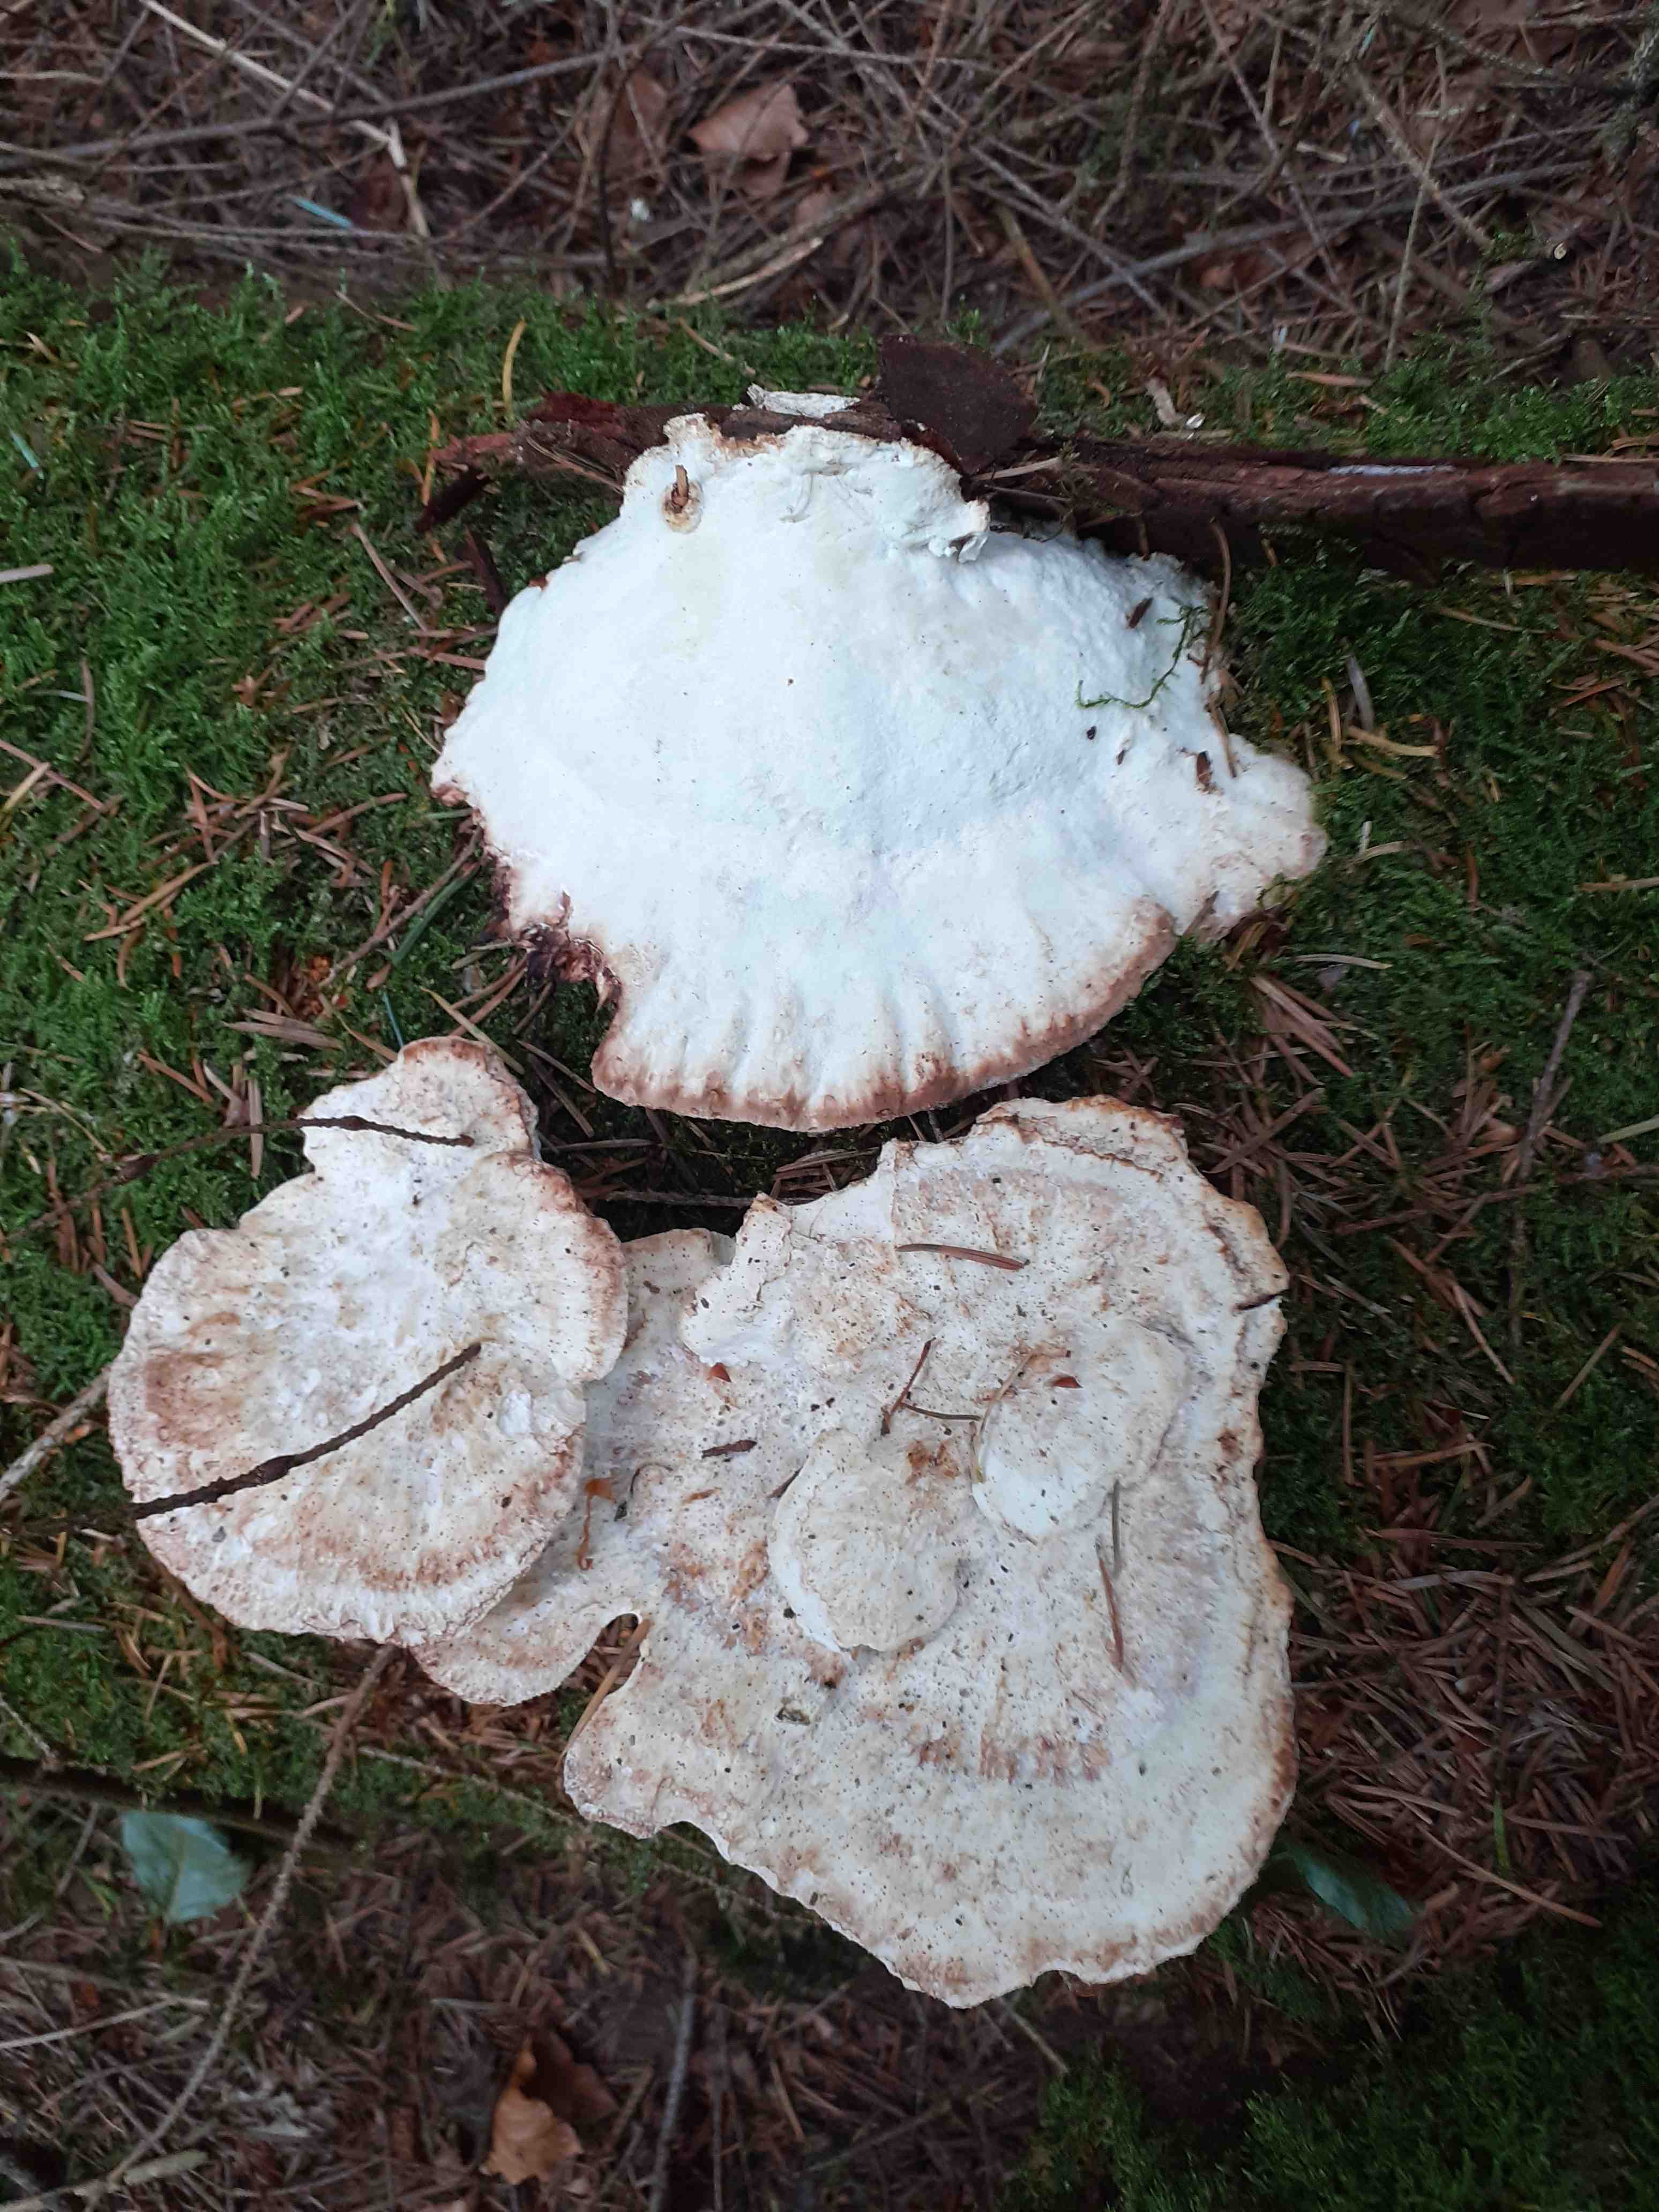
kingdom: Fungi
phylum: Basidiomycota
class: Agaricomycetes
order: Polyporales
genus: Calcipostia
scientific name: Calcipostia guttulata
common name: dråbe-kødporesvamp
